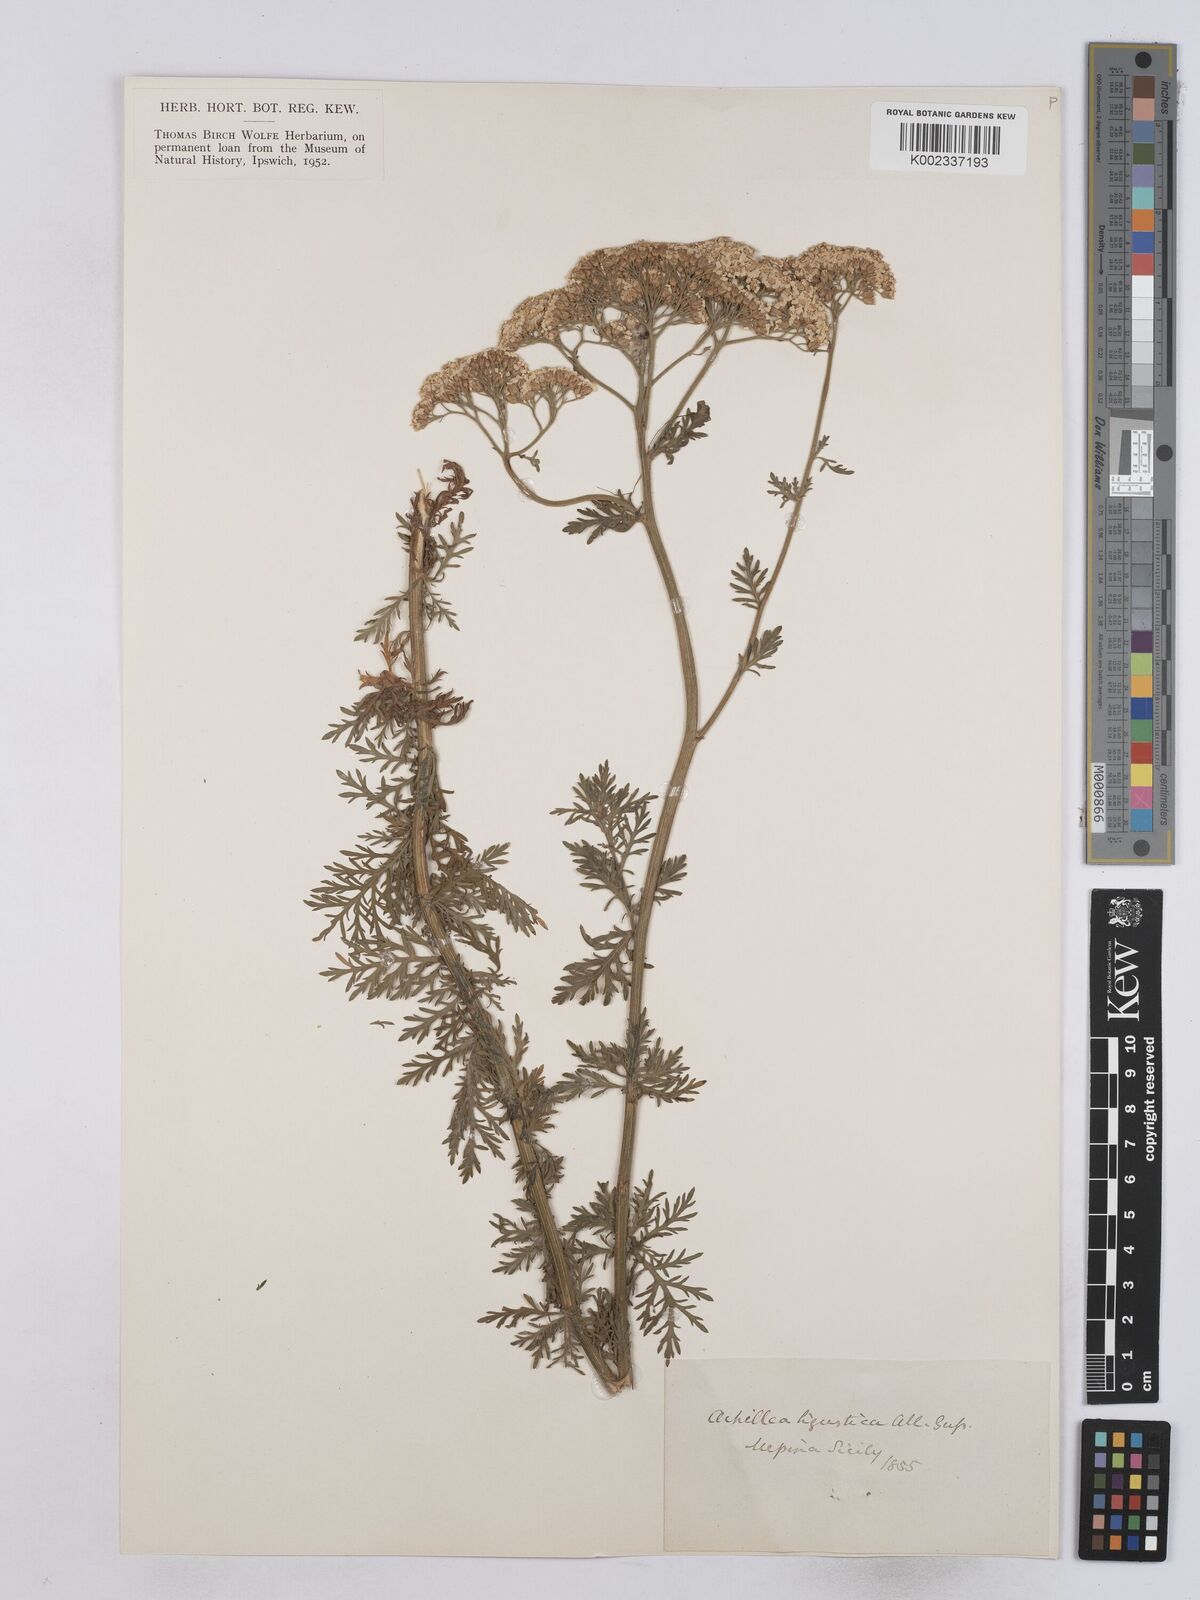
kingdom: Plantae
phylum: Tracheophyta
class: Magnoliopsida
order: Asterales
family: Asteraceae
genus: Achillea
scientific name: Achillea ligustica
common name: Southern yarrow
